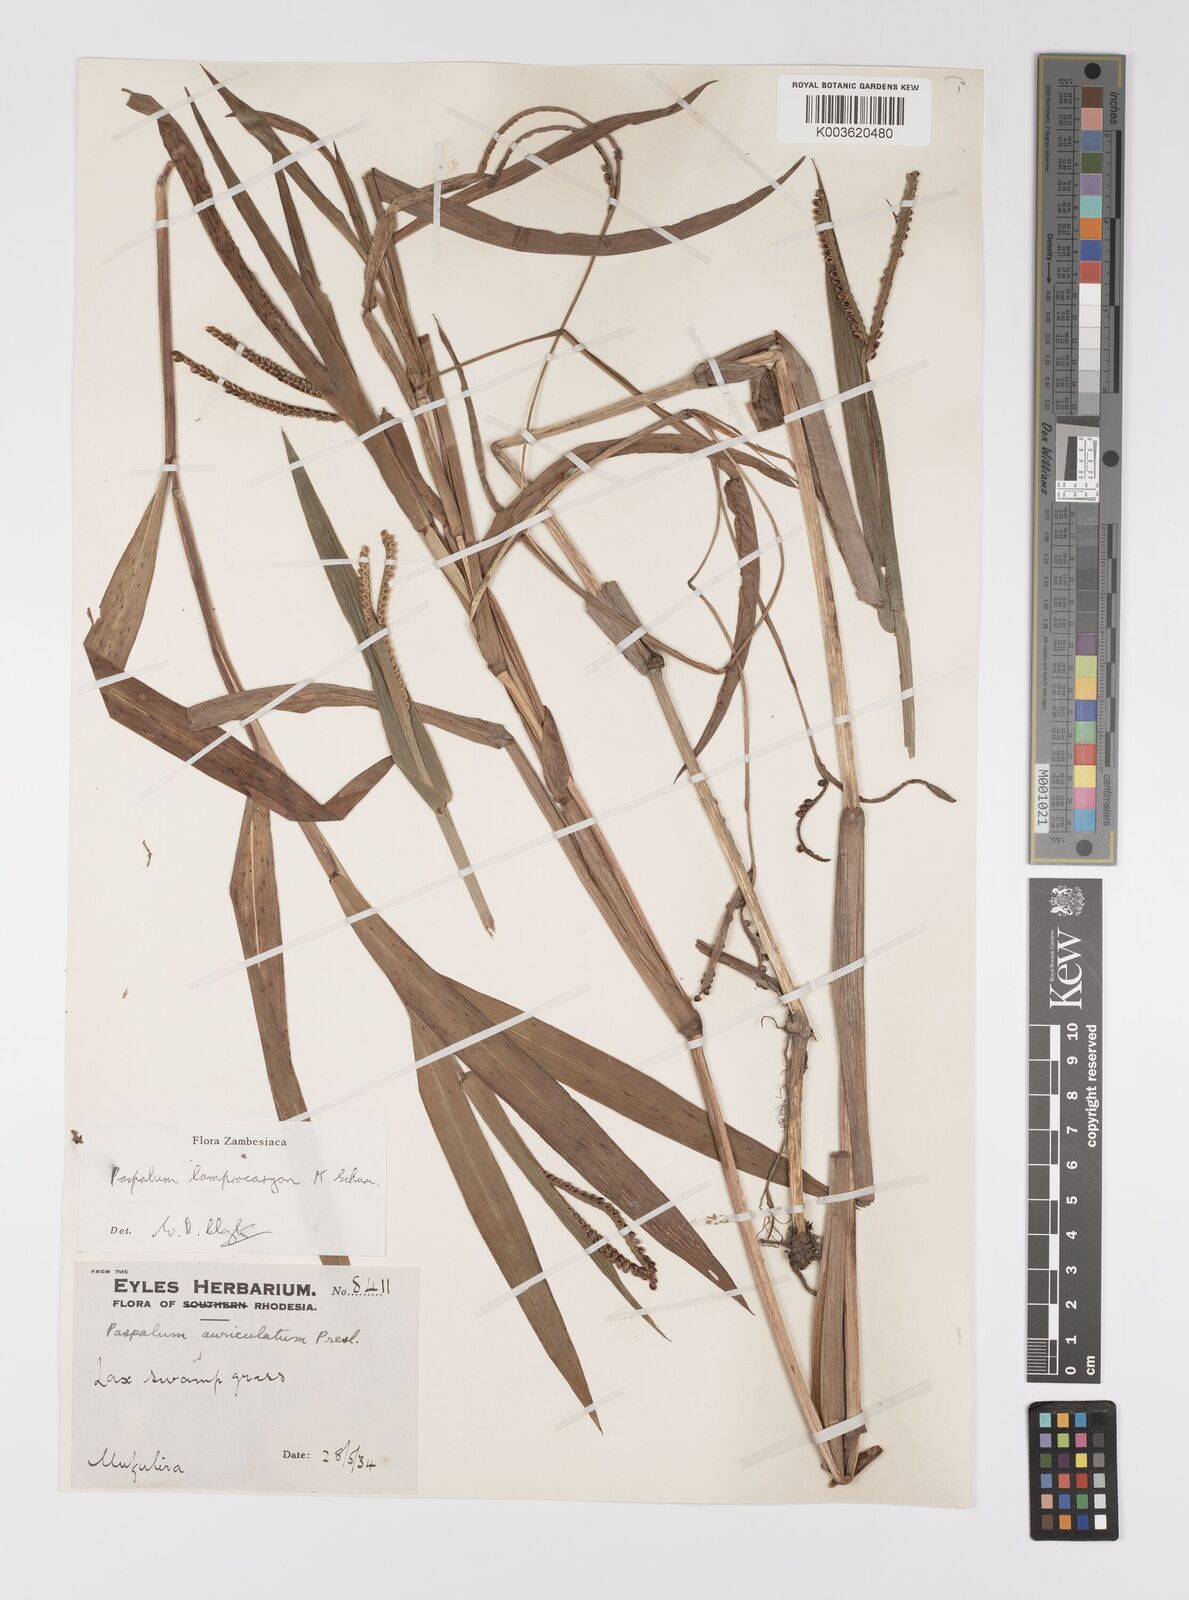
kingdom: Plantae
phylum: Tracheophyta
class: Liliopsida
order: Poales
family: Poaceae
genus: Paspalum
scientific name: Paspalum lamprocaryon
